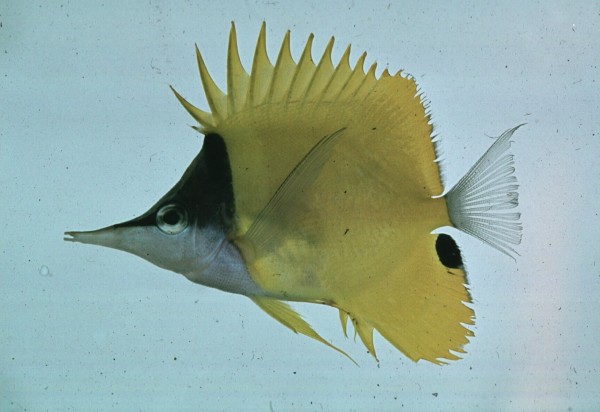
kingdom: Animalia
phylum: Chordata
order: Perciformes
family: Chaetodontidae
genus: Forcipiger
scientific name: Forcipiger flavissimus
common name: Forcepsfish
